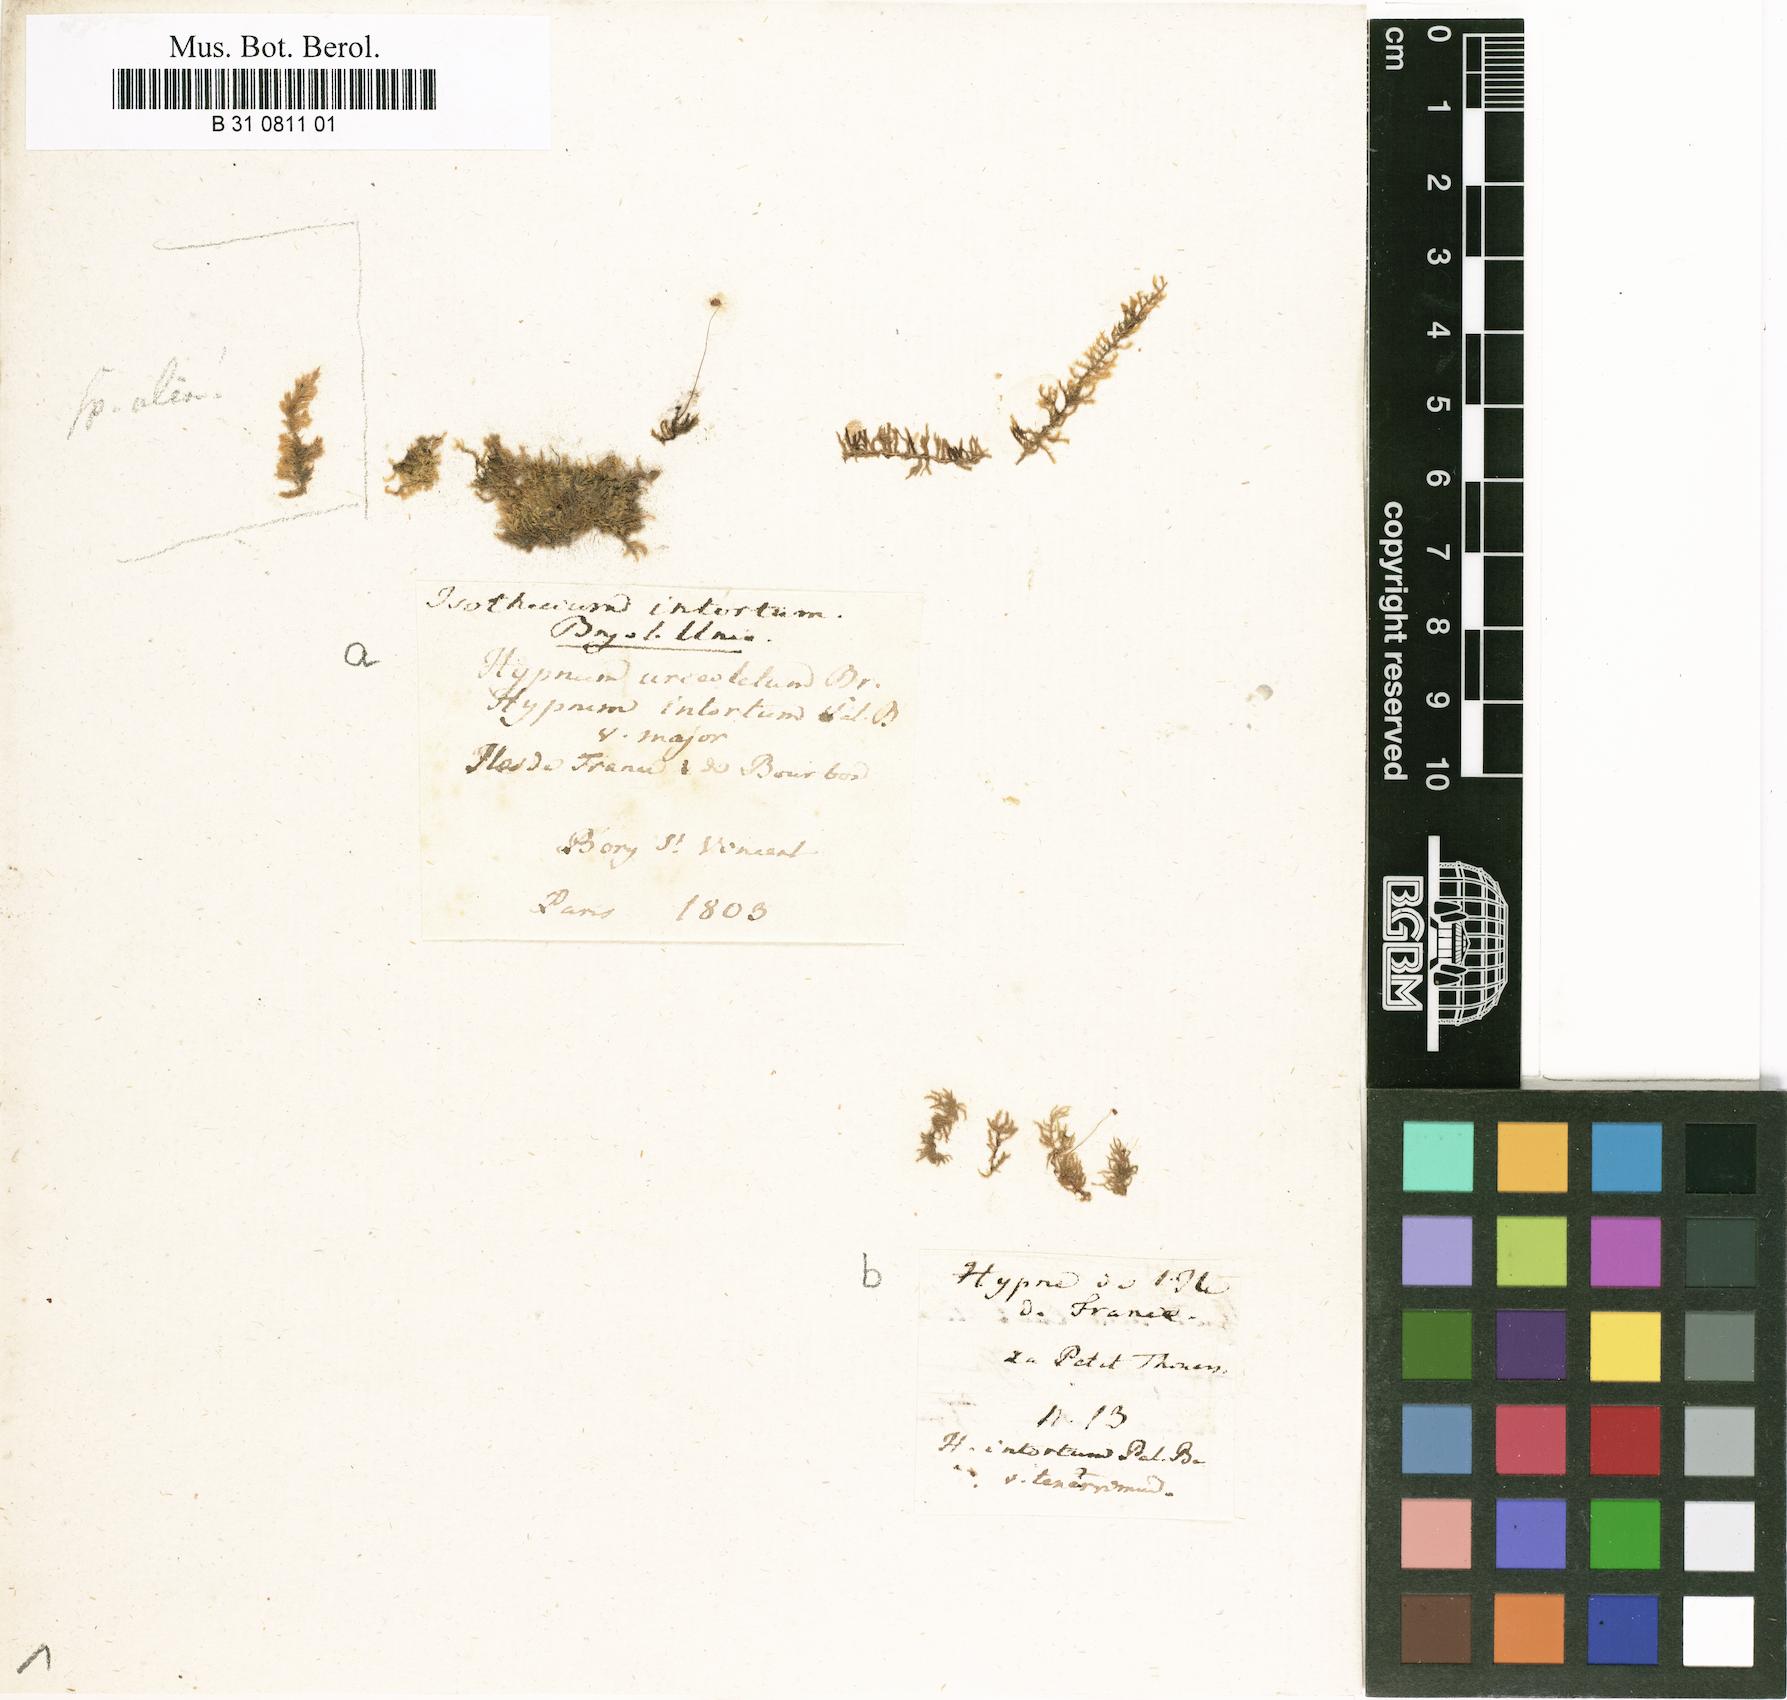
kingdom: Plantae
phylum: Bryophyta
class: Bryopsida
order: Hypnales
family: Pylaisiadelphaceae
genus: Isopterygium
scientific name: Isopterygium intortum
